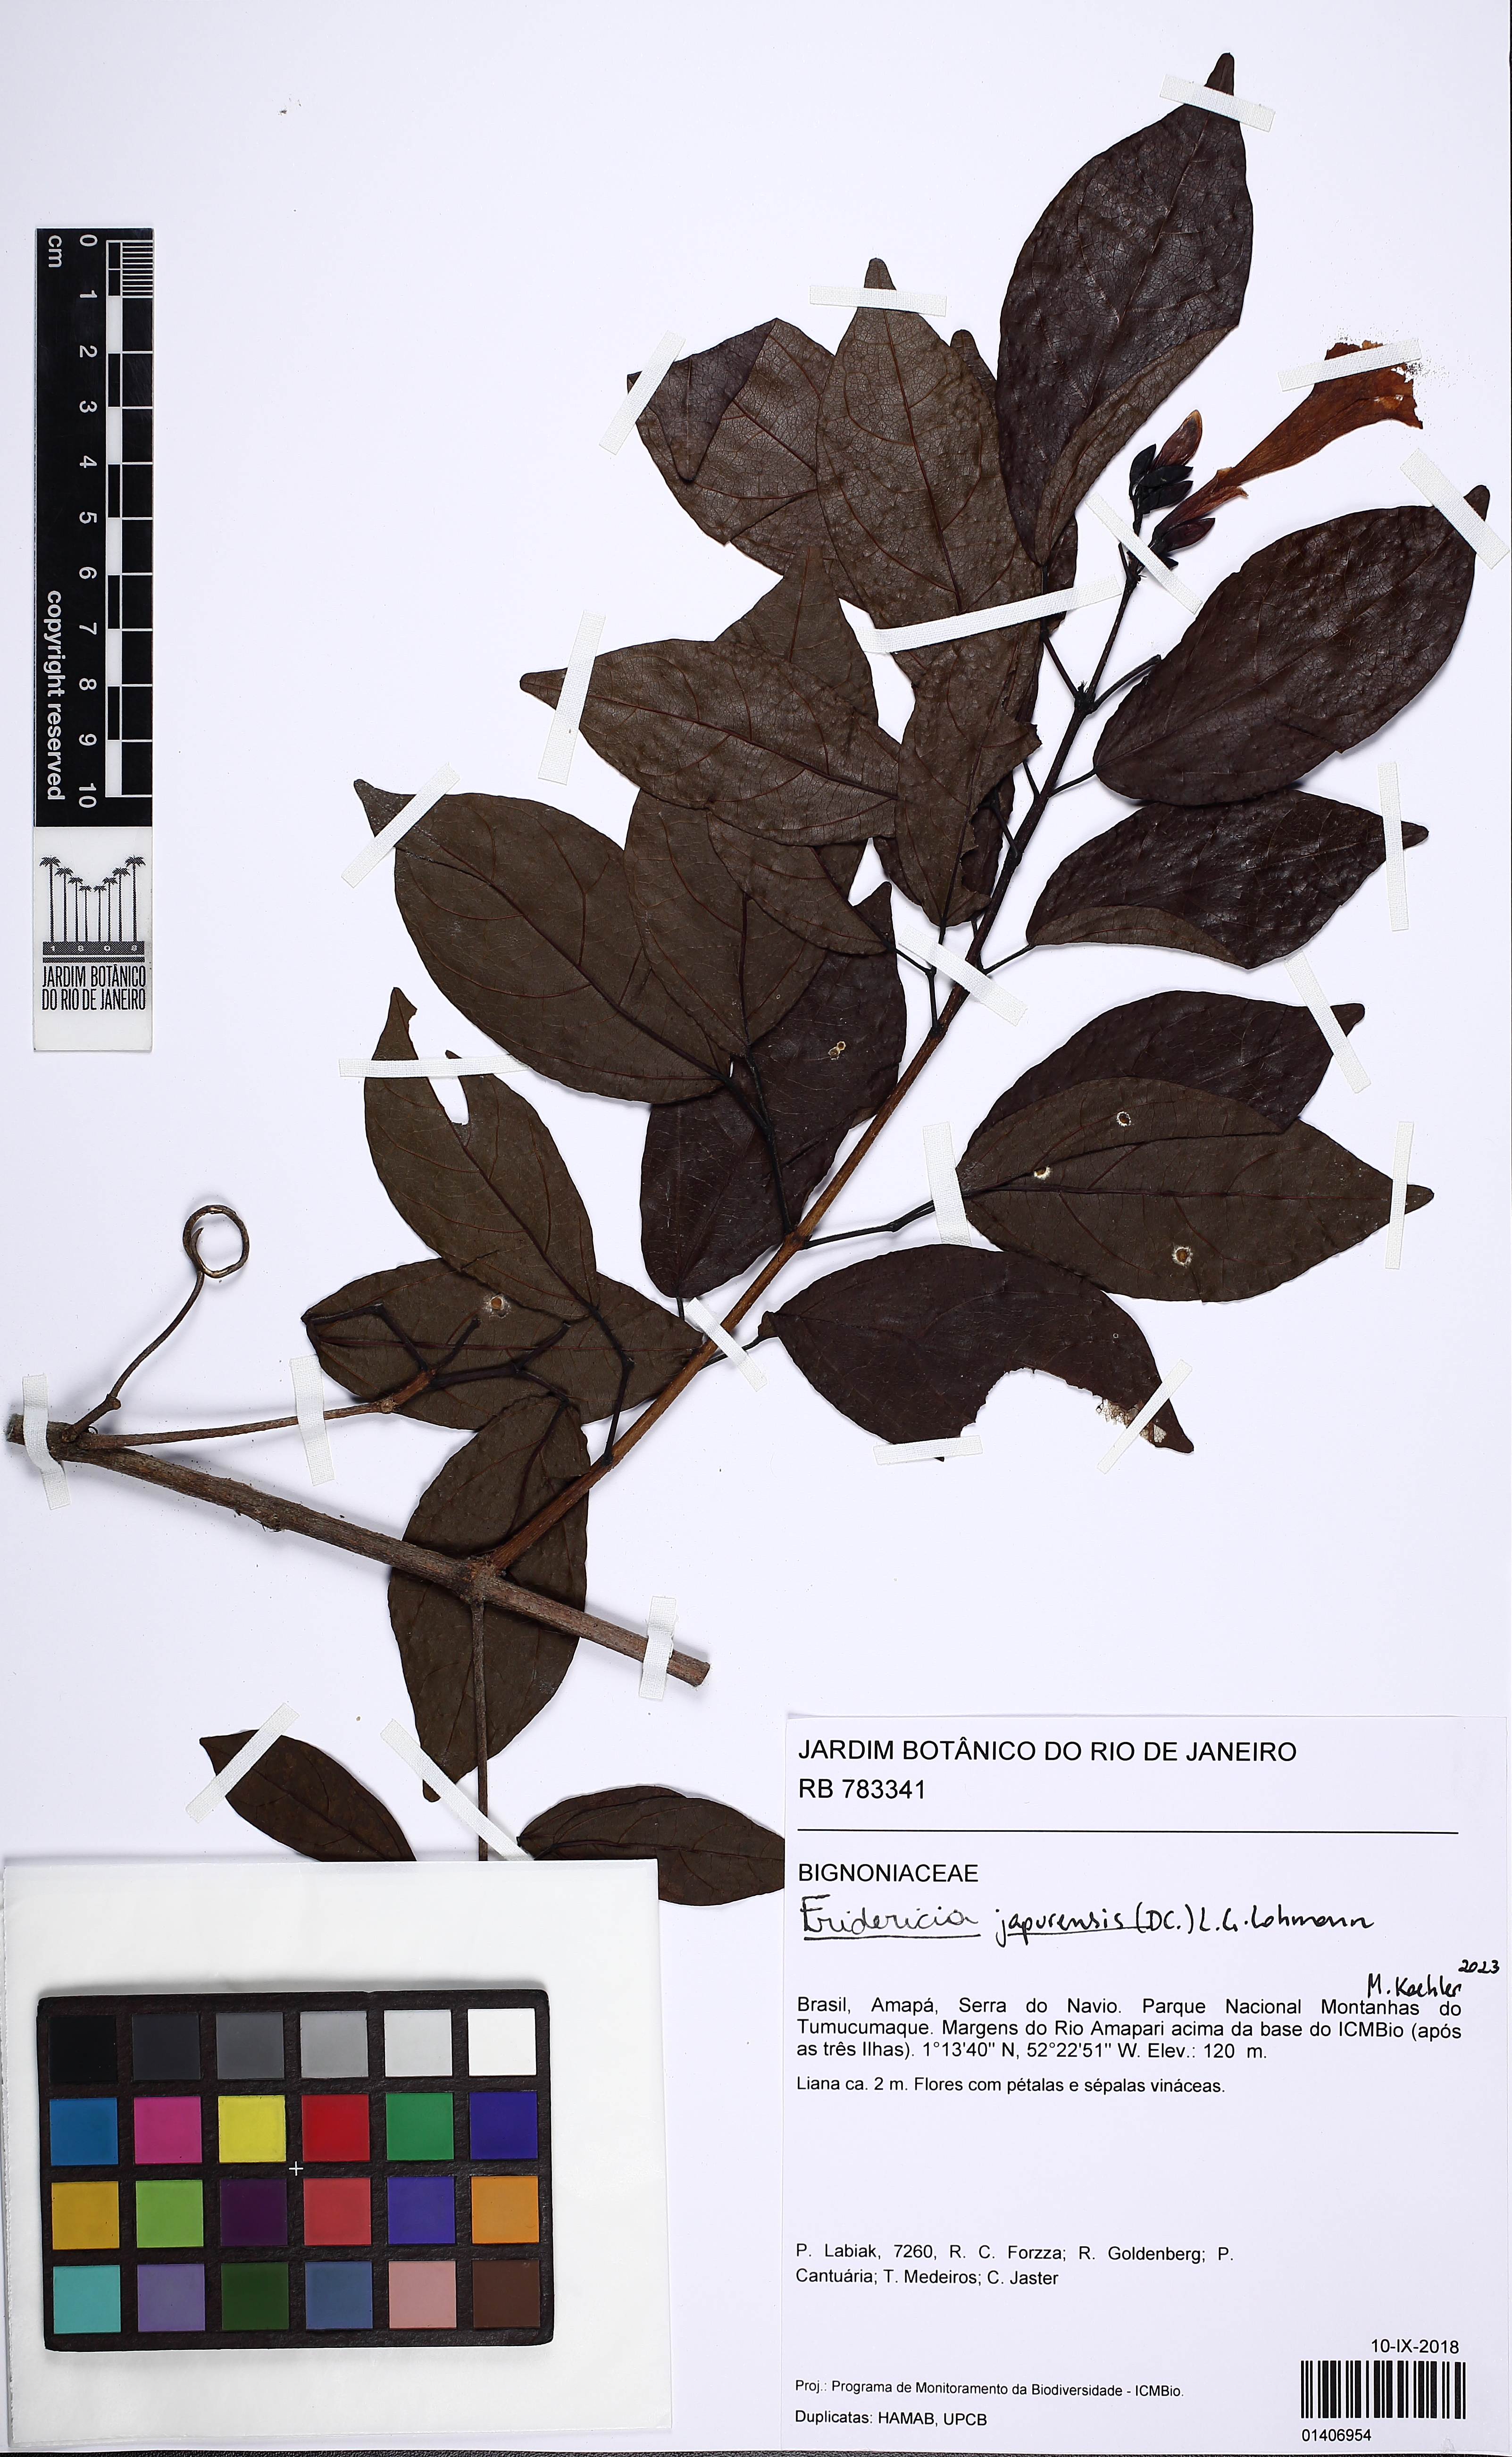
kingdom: Plantae
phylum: Tracheophyta
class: Magnoliopsida
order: Lamiales
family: Bignoniaceae
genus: Fridericia
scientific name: Fridericia japurensis
